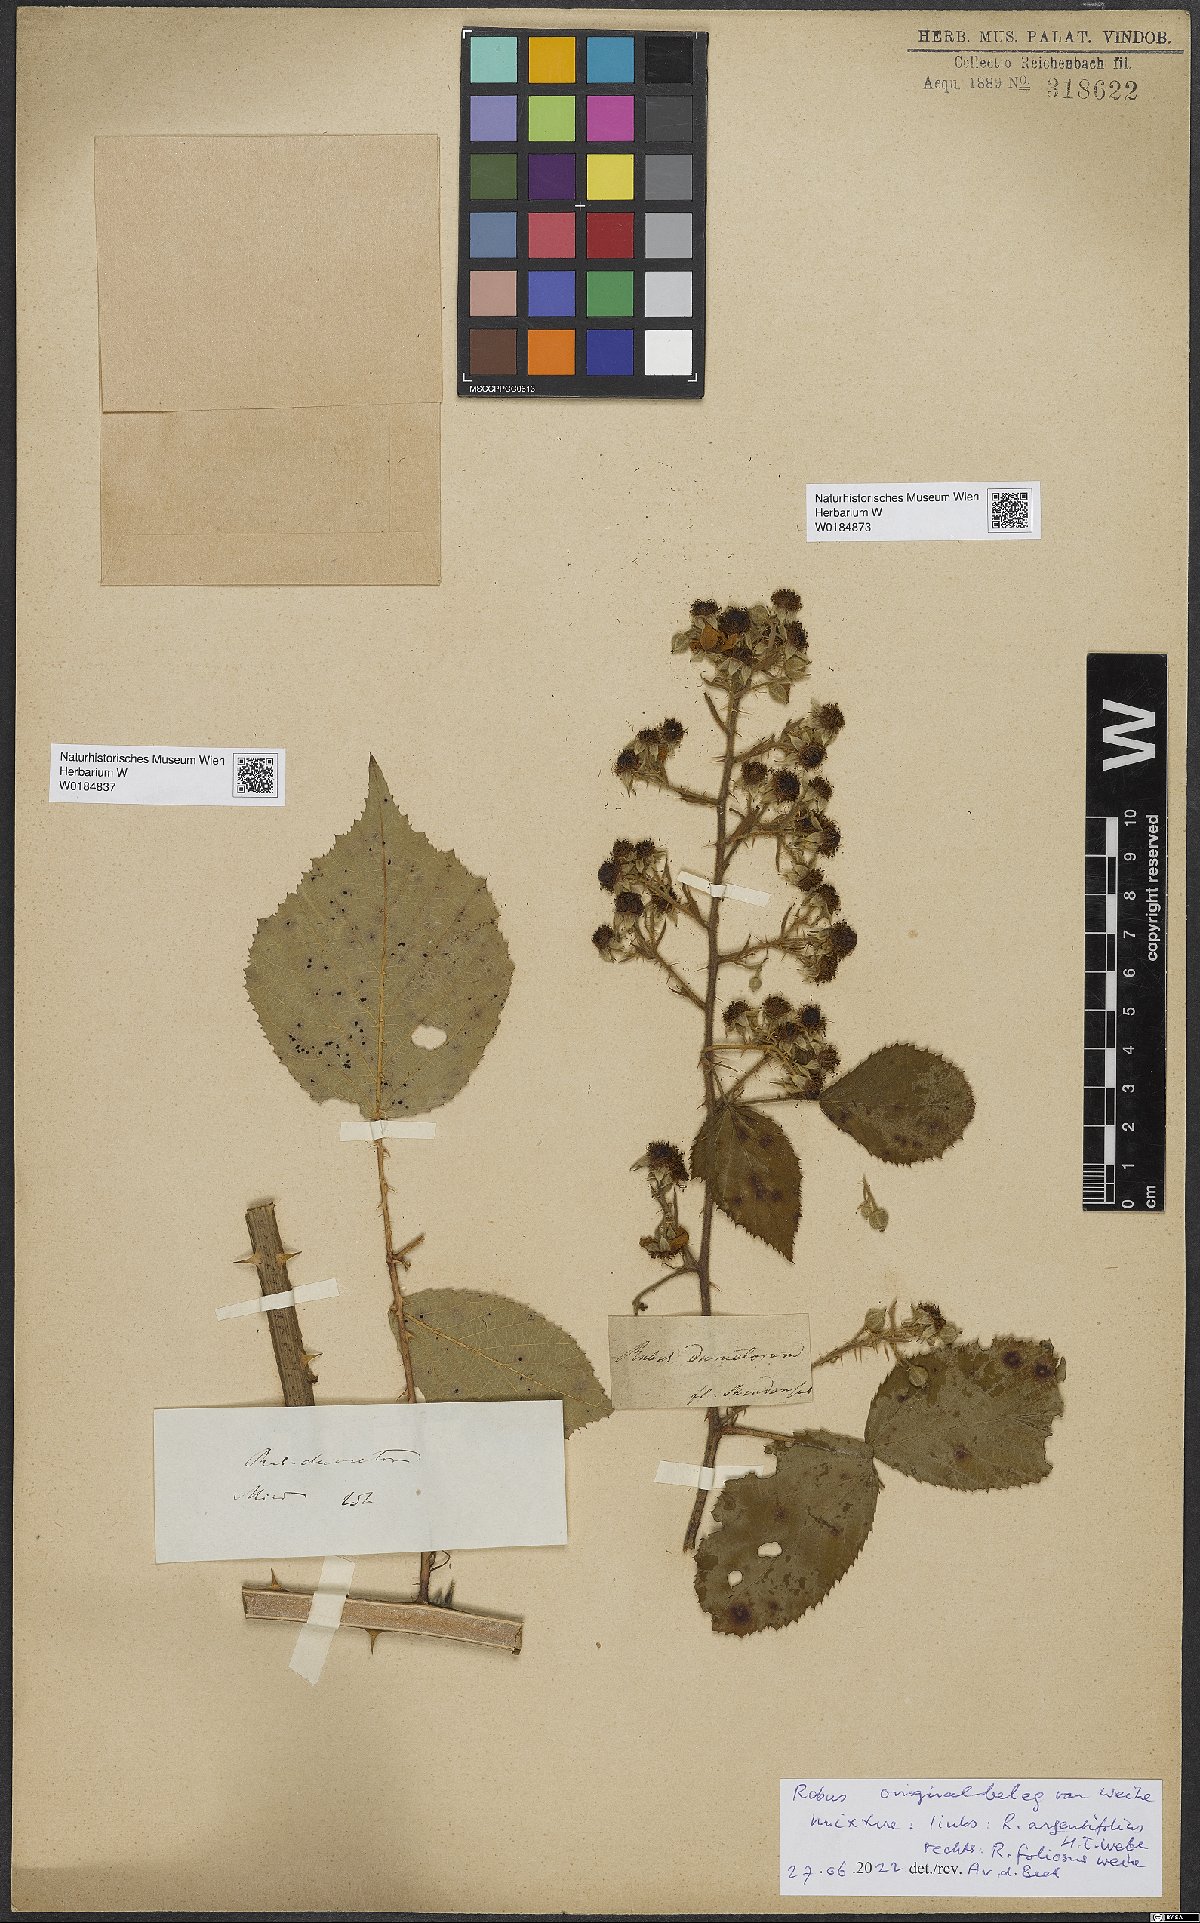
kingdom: Plantae
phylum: Tracheophyta
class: Magnoliopsida
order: Rosales
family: Rosaceae
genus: Rubus
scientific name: Rubus argentifolius
